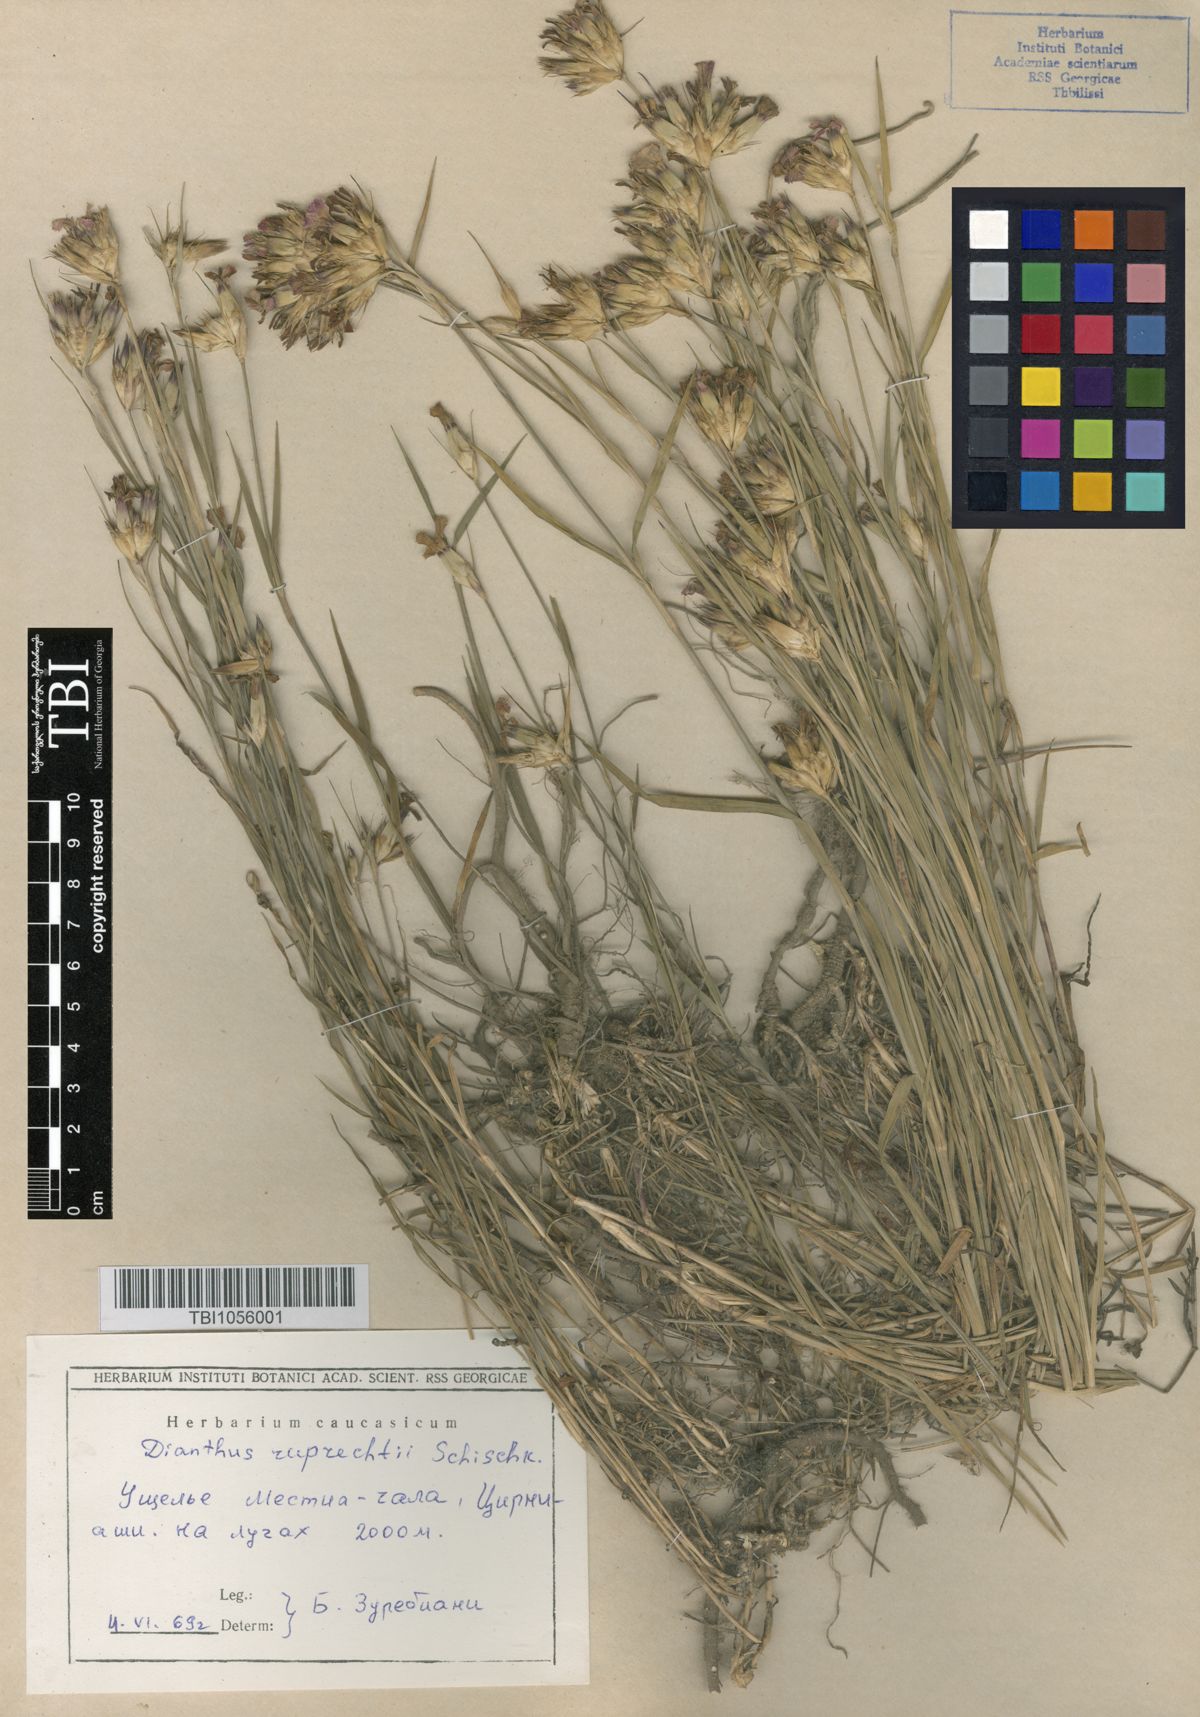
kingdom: Plantae
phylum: Tracheophyta
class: Magnoliopsida
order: Caryophyllales
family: Caryophyllaceae
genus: Dianthus
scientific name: Dianthus ruprechtii
